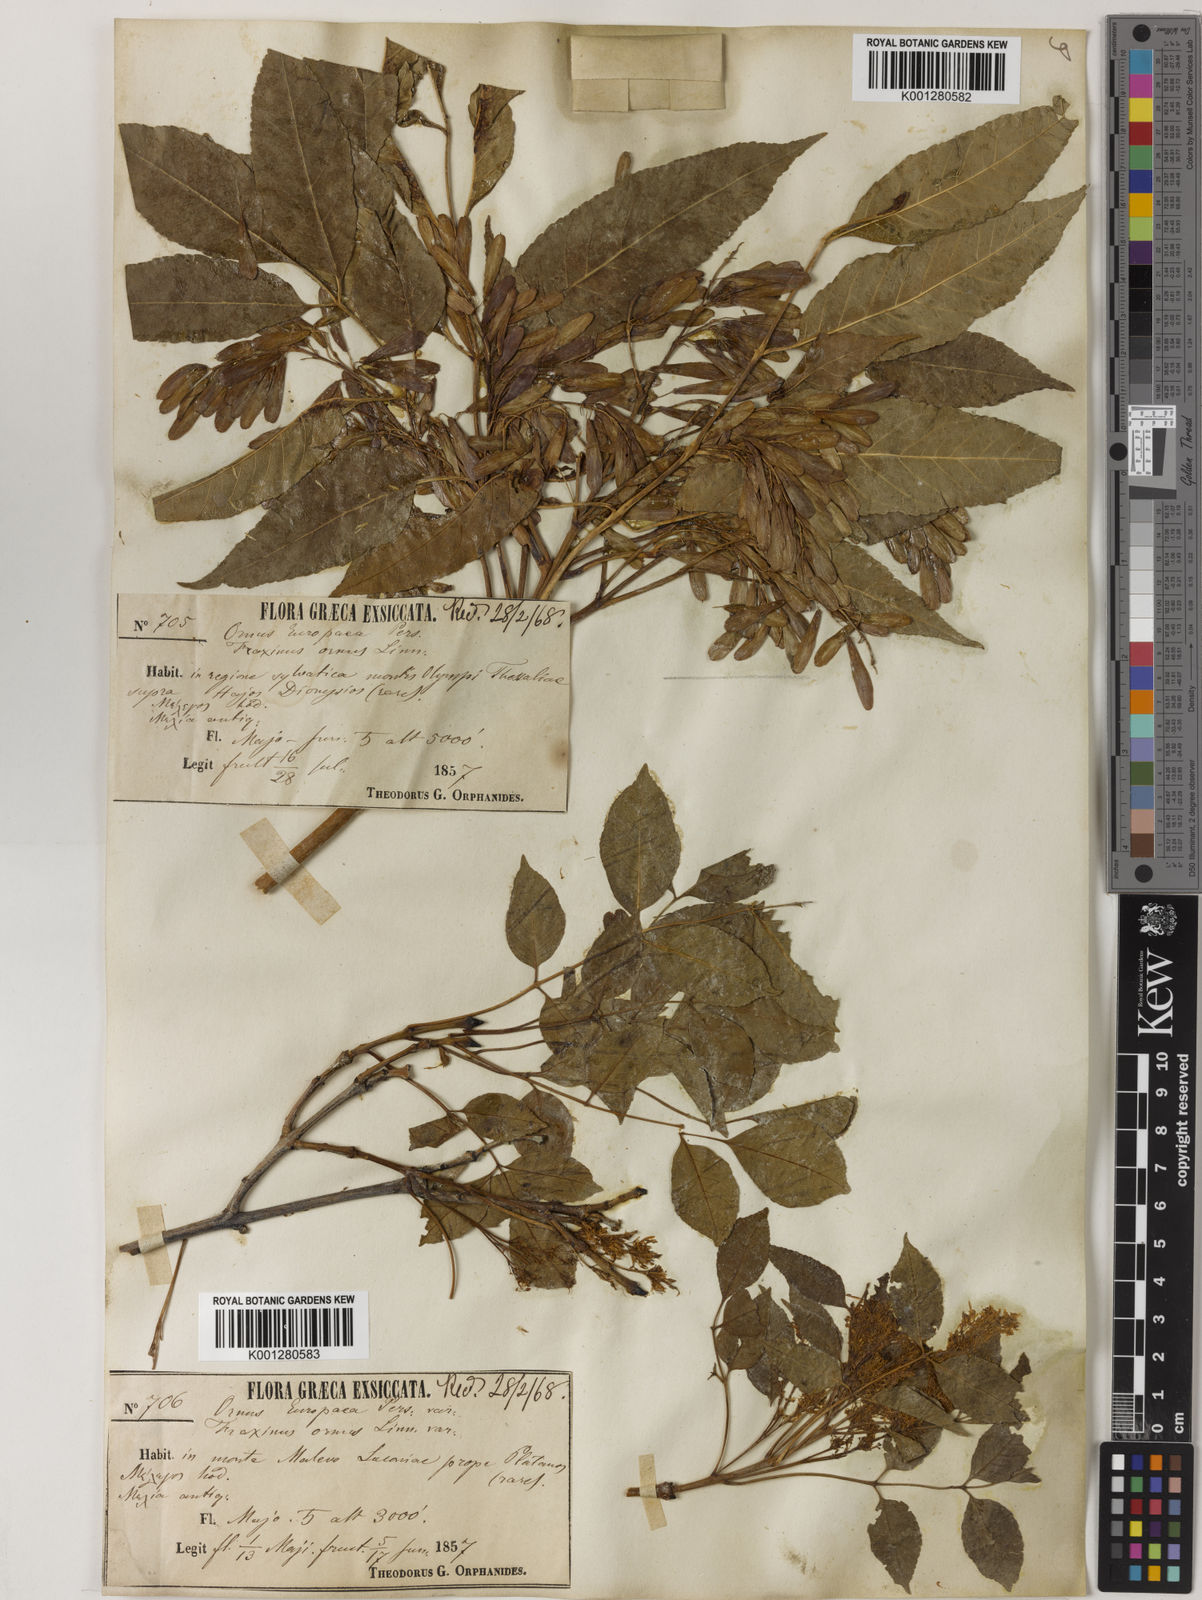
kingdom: Plantae
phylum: Tracheophyta
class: Magnoliopsida
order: Lamiales
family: Oleaceae
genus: Fraxinus
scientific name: Fraxinus ornus
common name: Manna ash
